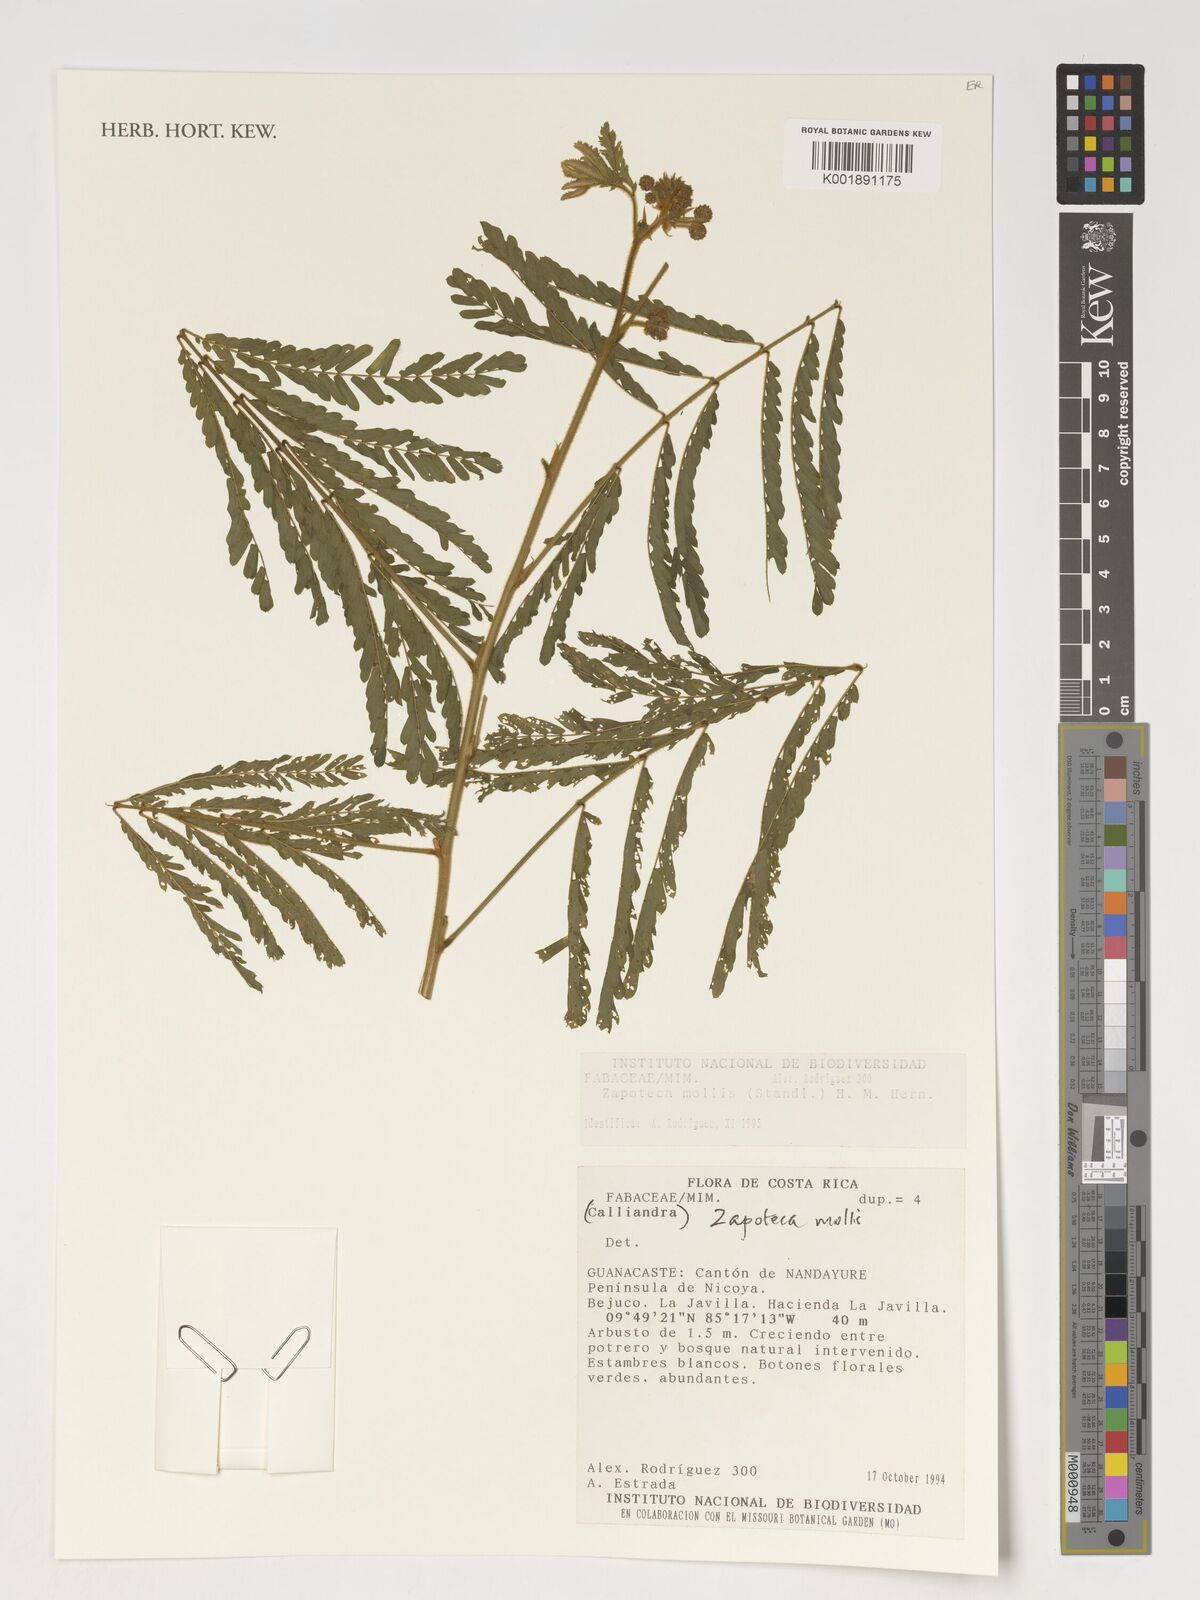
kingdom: Plantae
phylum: Tracheophyta
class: Magnoliopsida
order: Fabales
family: Fabaceae
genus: Zapoteca
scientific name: Zapoteca mollis
